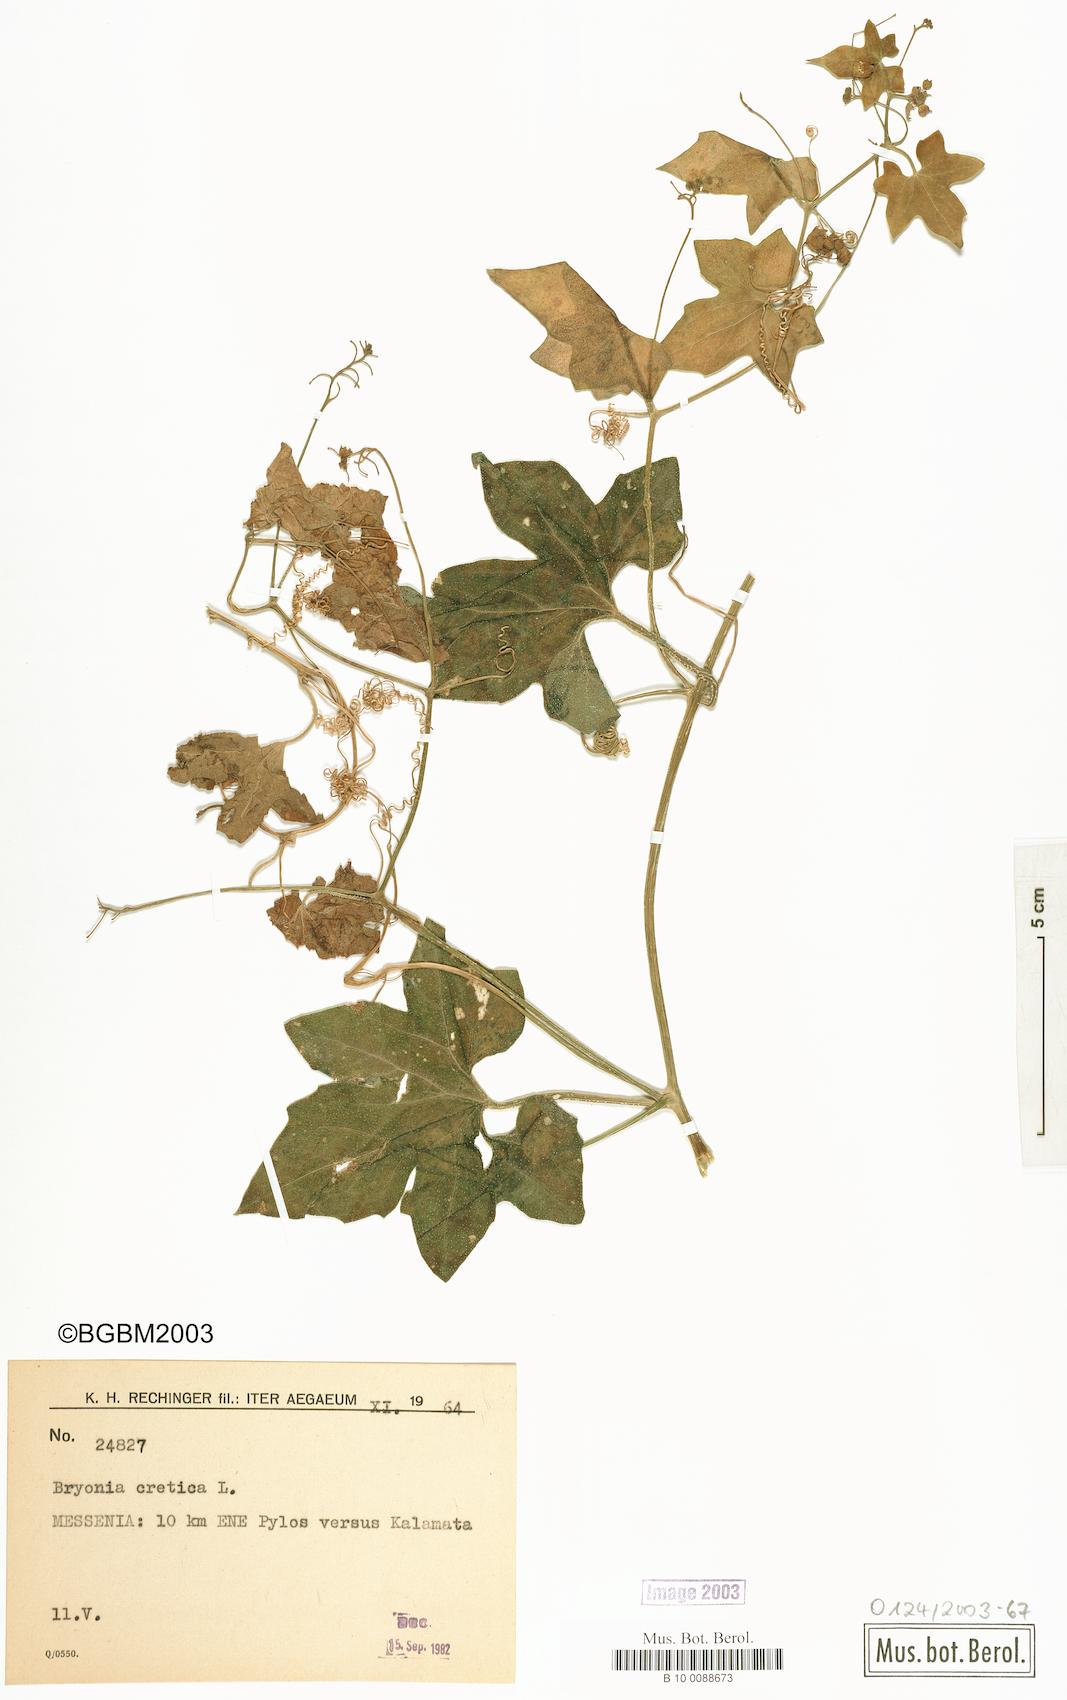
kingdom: Plantae
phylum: Tracheophyta
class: Magnoliopsida
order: Cucurbitales
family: Cucurbitaceae
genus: Bryonia
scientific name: Bryonia cretica
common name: Cretan bryony
